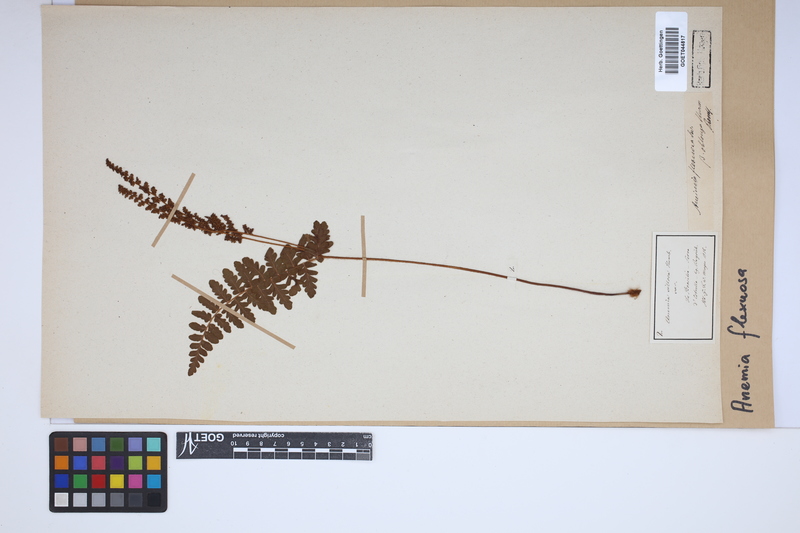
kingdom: Plantae
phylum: Tracheophyta
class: Polypodiopsida
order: Schizaeales
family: Anemiaceae
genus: Anemia
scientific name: Anemia flexuosa
